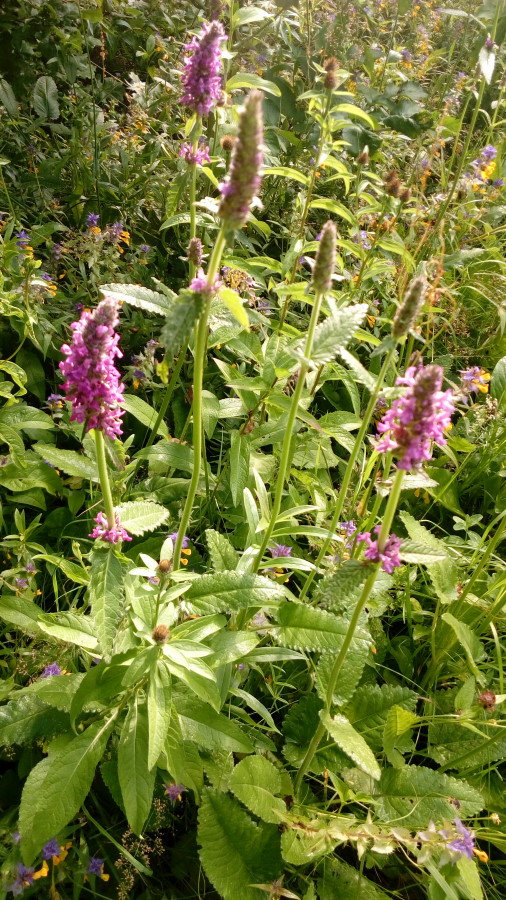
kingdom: Plantae
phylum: Tracheophyta
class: Magnoliopsida
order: Lamiales
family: Lamiaceae
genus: Betonica
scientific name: Betonica officinalis
